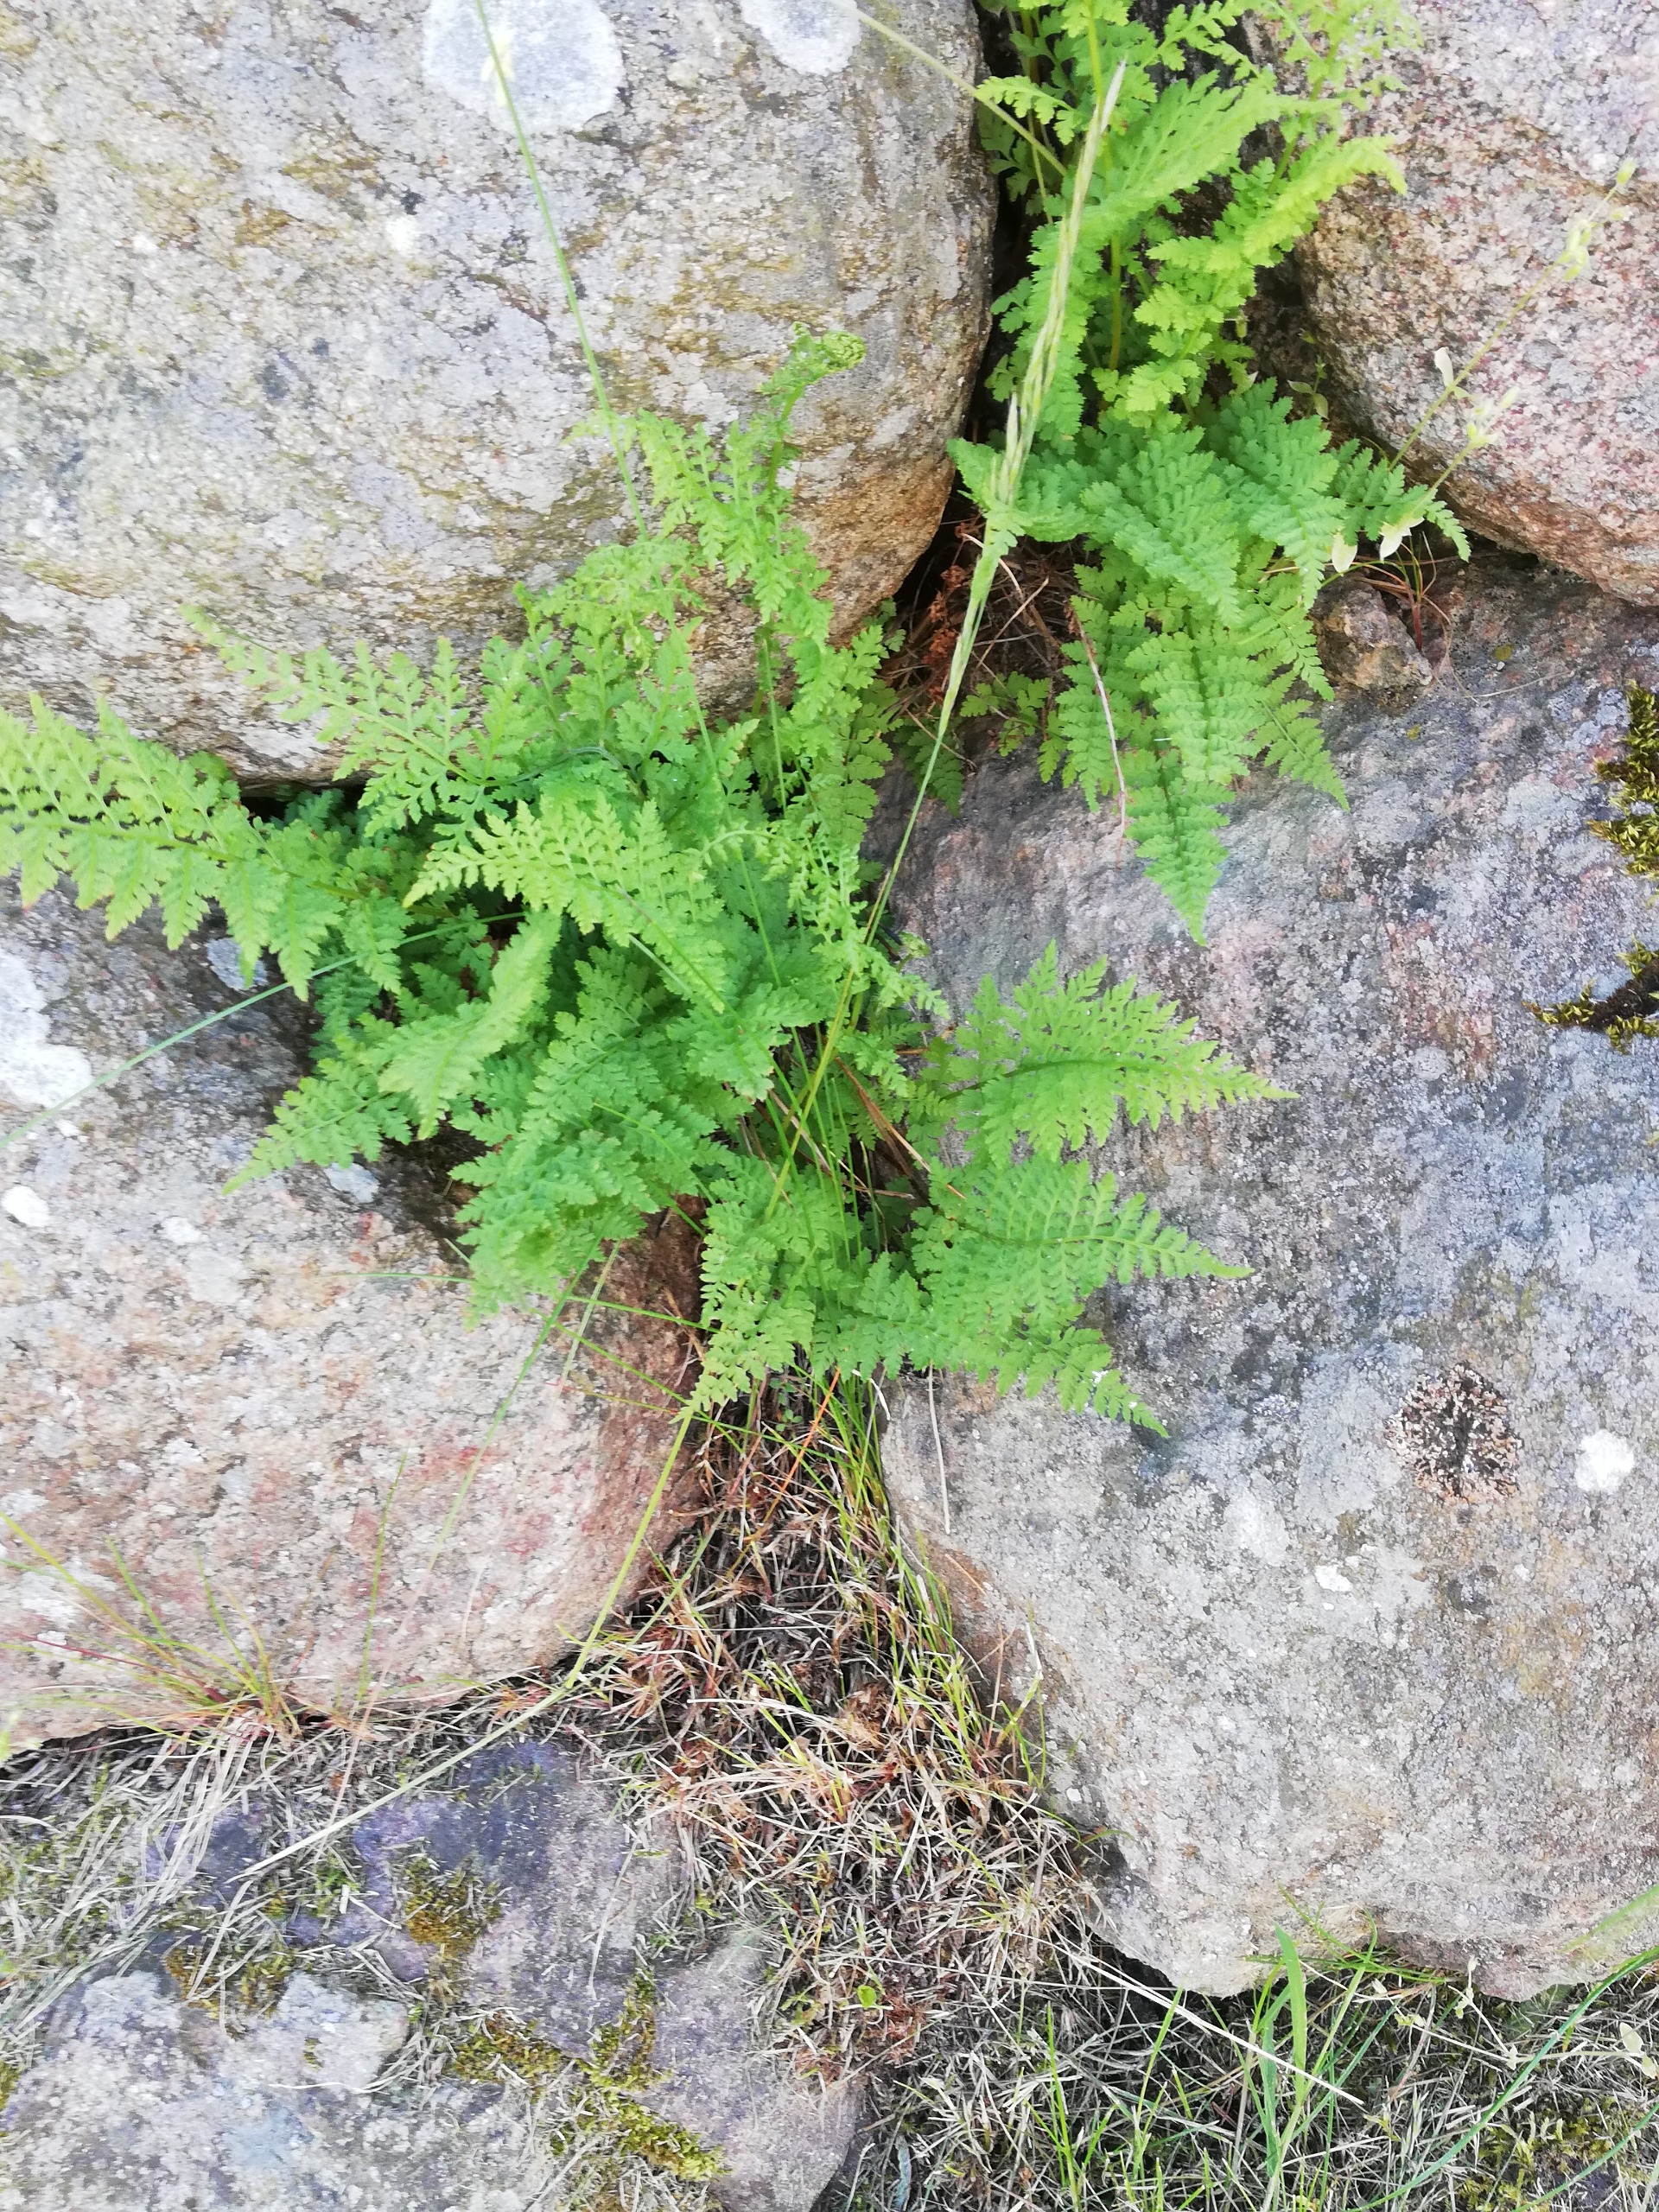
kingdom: Plantae
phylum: Tracheophyta
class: Polypodiopsida
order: Polypodiales
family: Cystopteridaceae
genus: Cystopteris
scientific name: Cystopteris fragilis
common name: Bægerbregne
